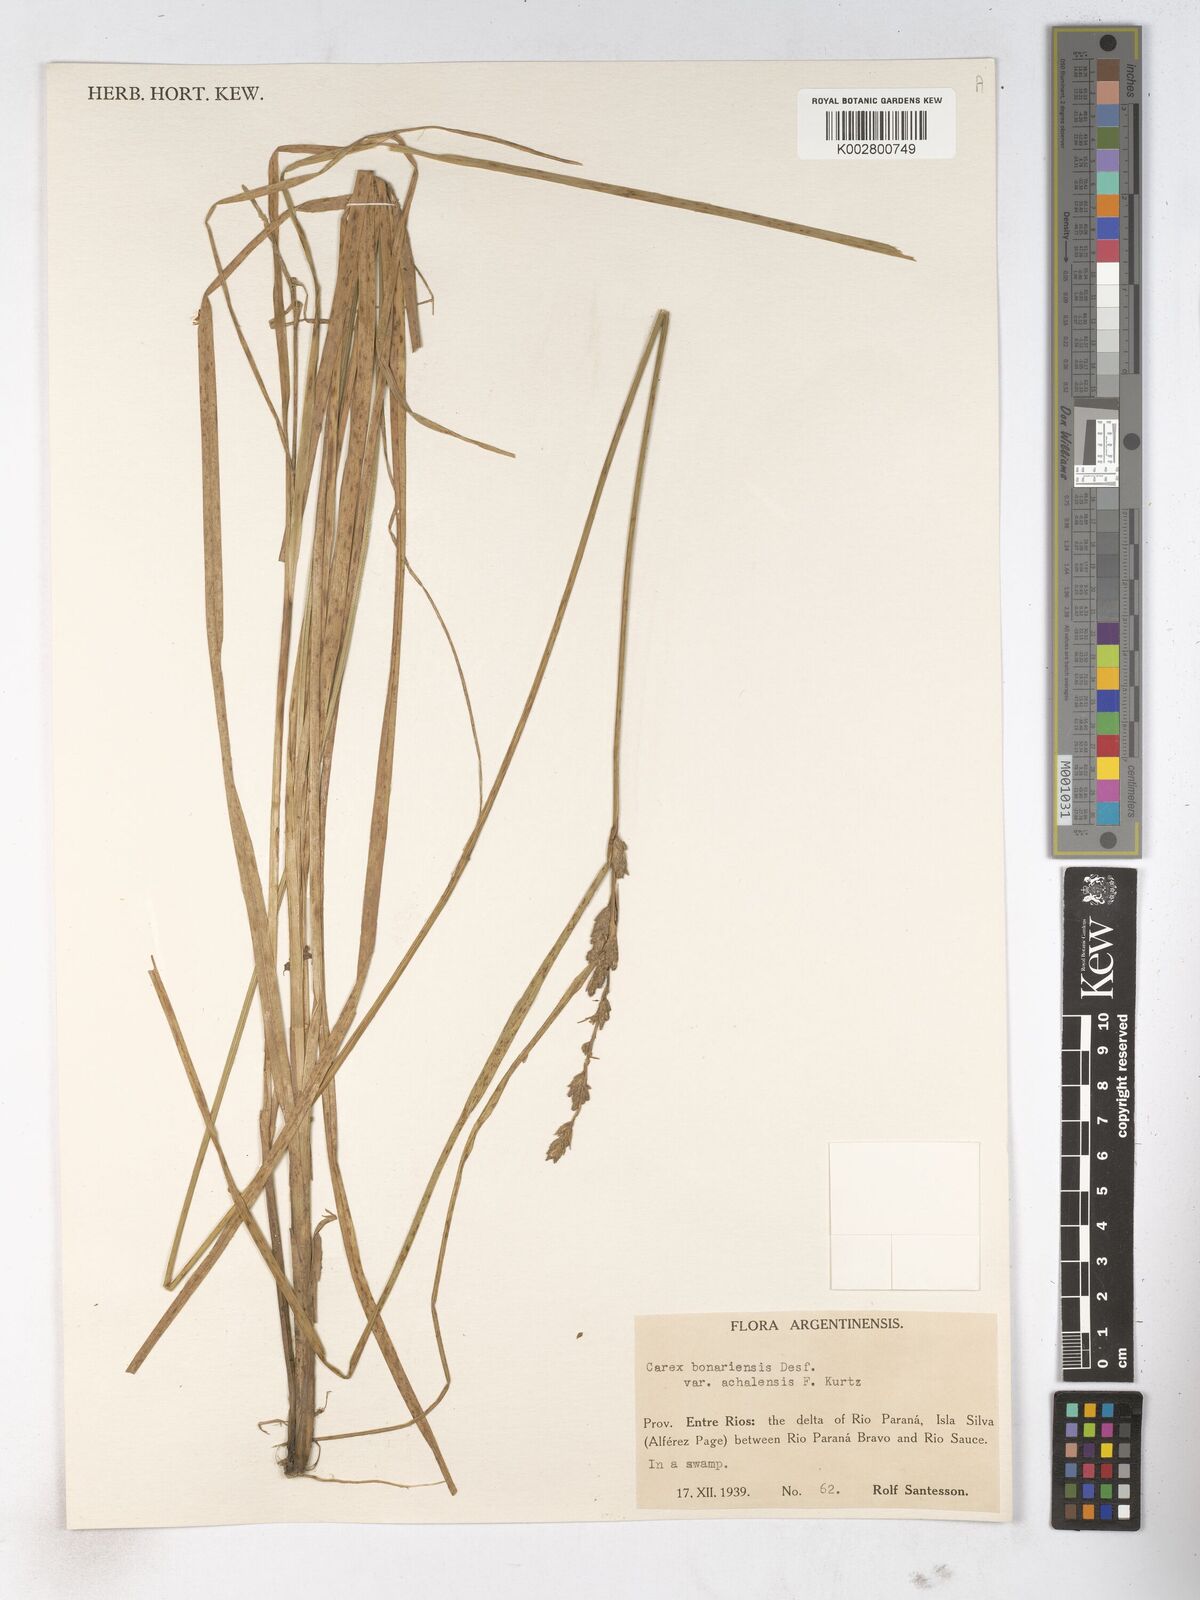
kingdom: Plantae
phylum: Tracheophyta
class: Liliopsida
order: Poales
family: Cyperaceae
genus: Carex
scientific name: Carex bonariensis
